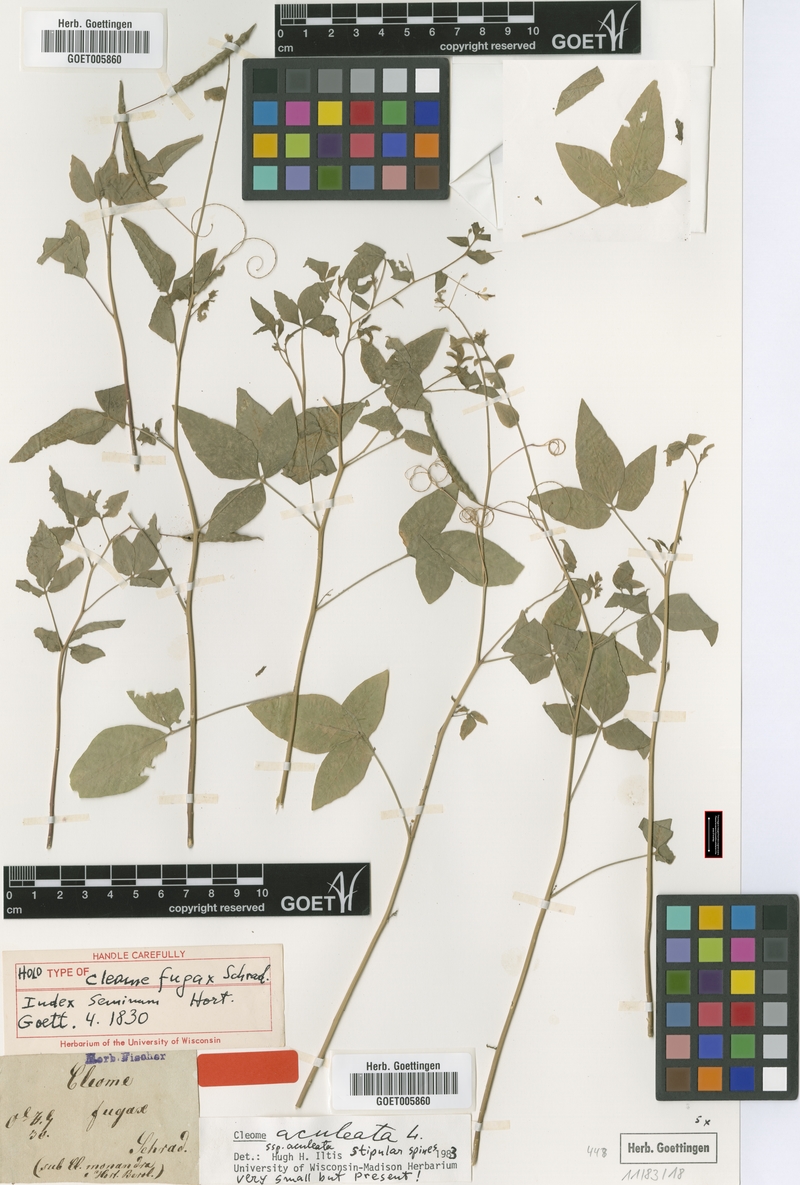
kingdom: Plantae
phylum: Tracheophyta
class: Magnoliopsida
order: Brassicales
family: Cleomaceae
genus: Tarenaya
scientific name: Tarenaya aculeata
